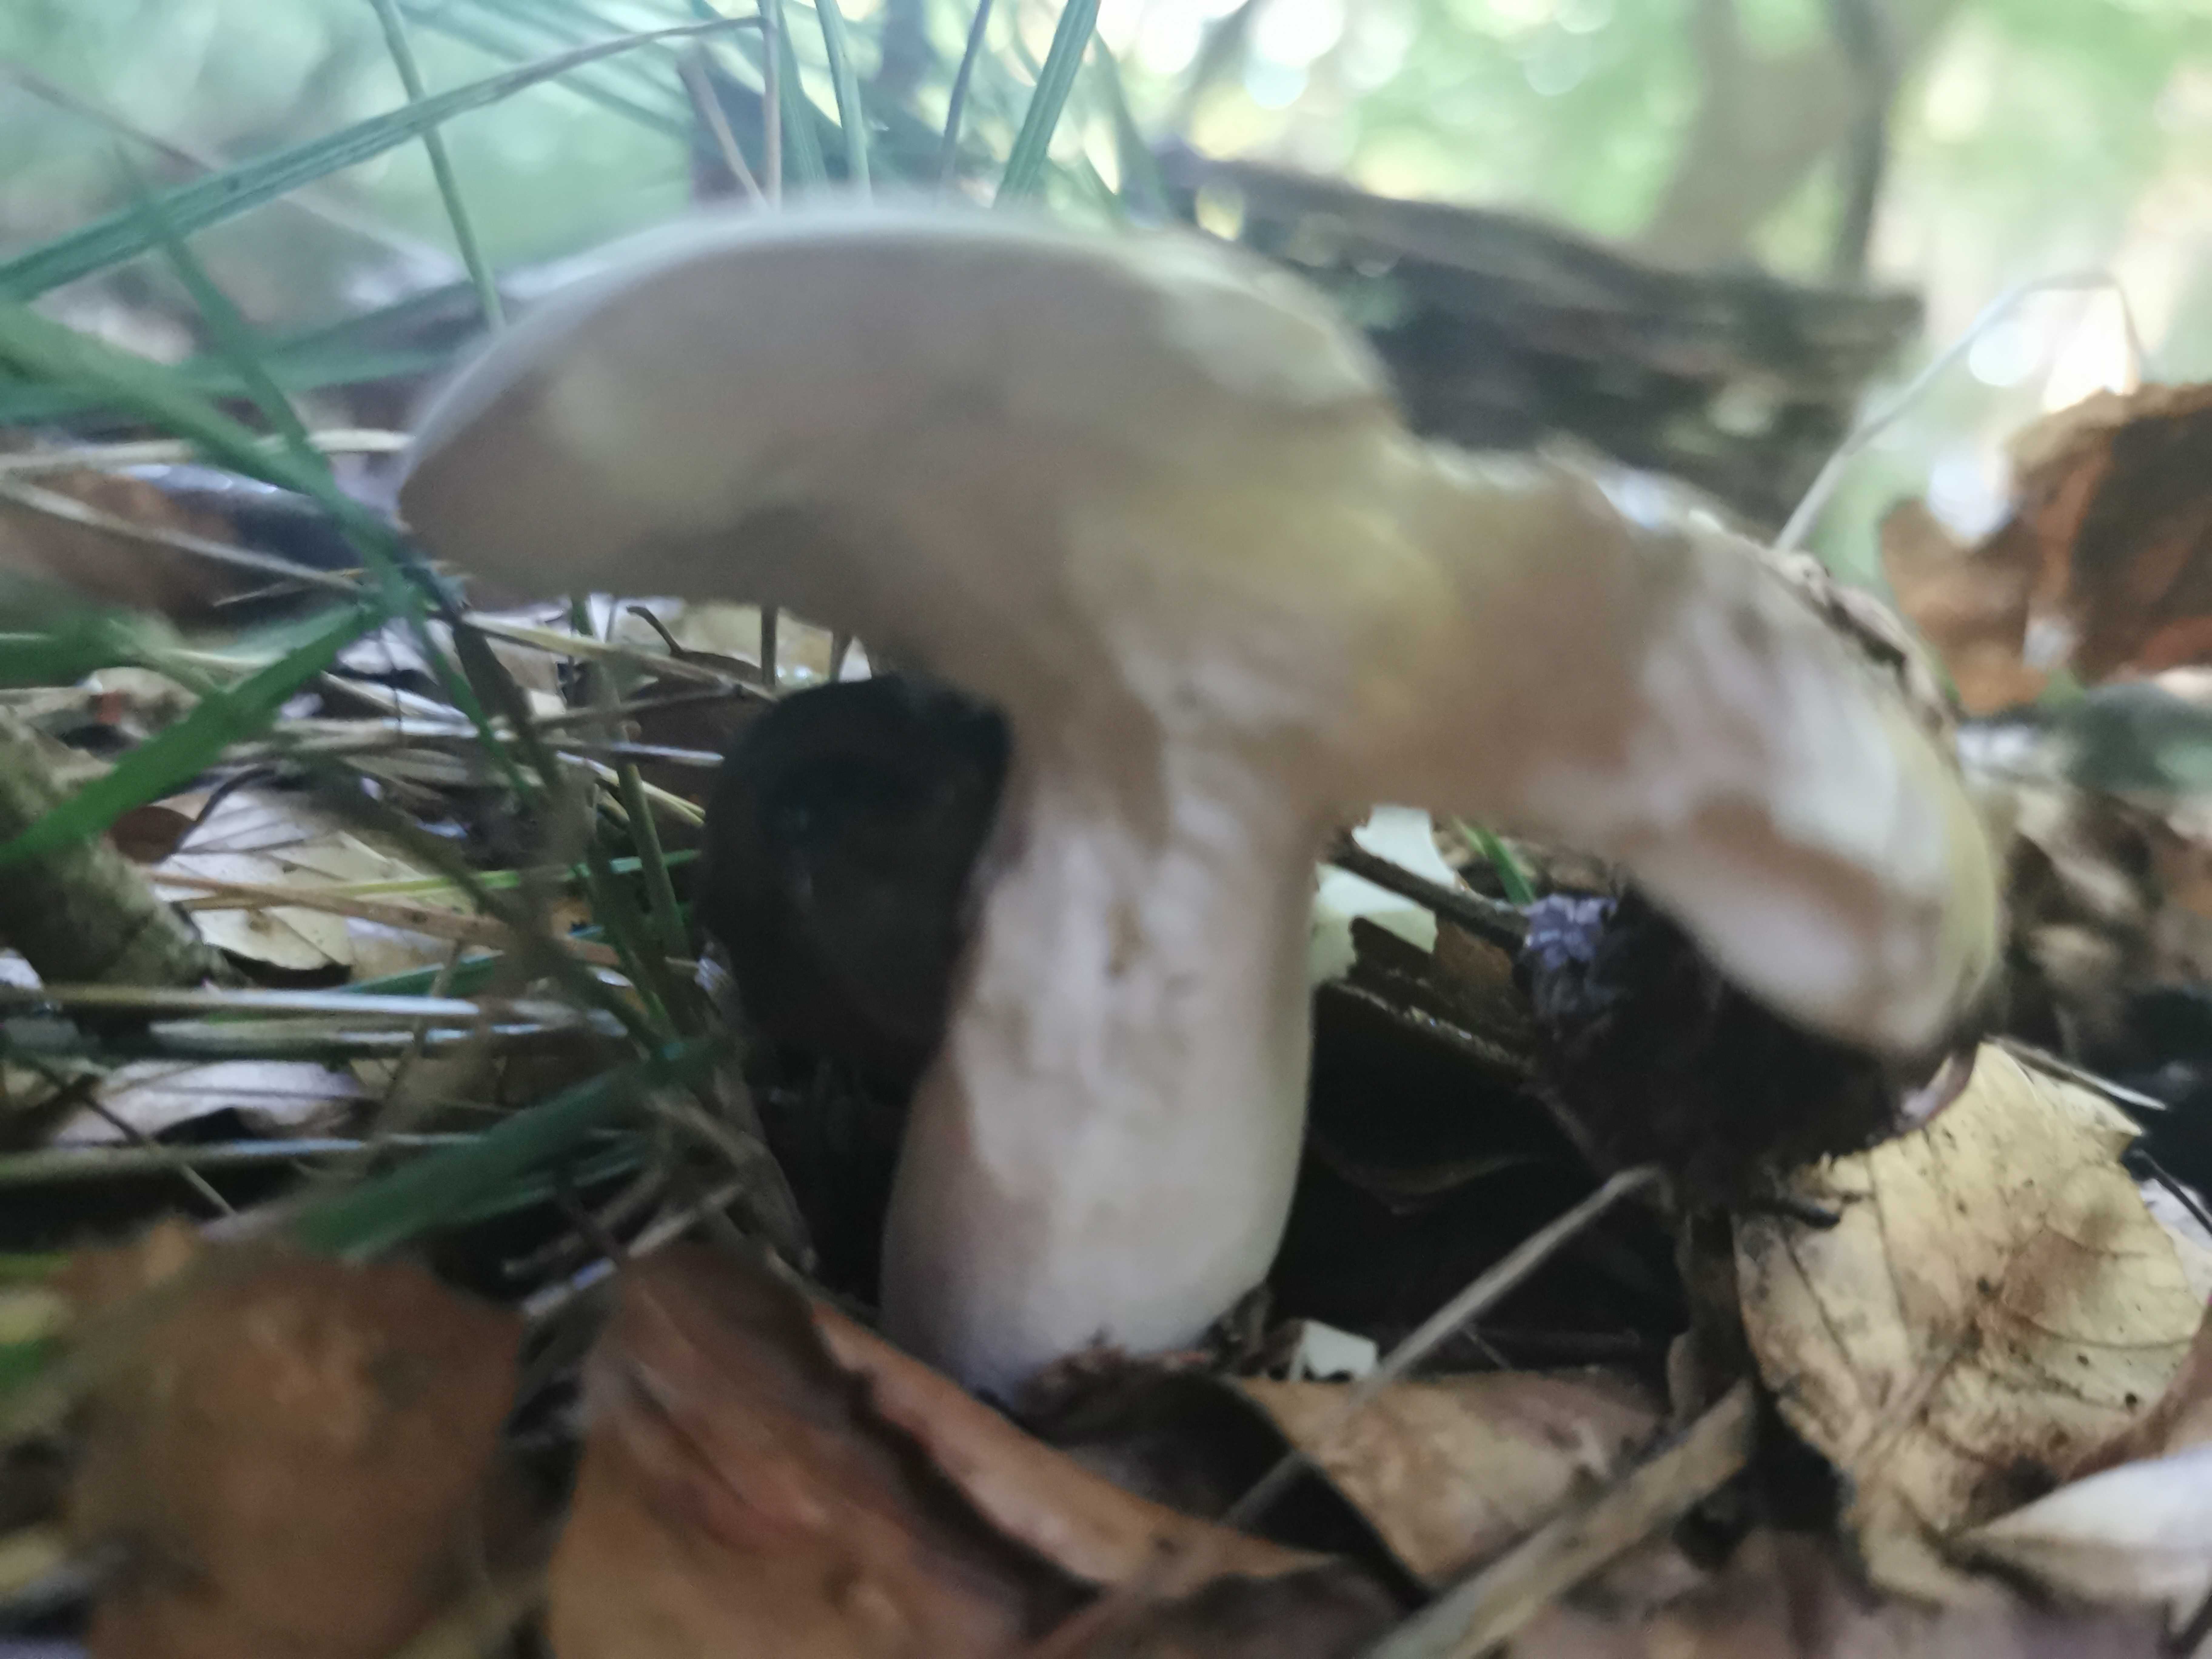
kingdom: Fungi
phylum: Basidiomycota
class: Agaricomycetes
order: Russulales
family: Russulaceae
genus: Russula
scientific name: Russula
